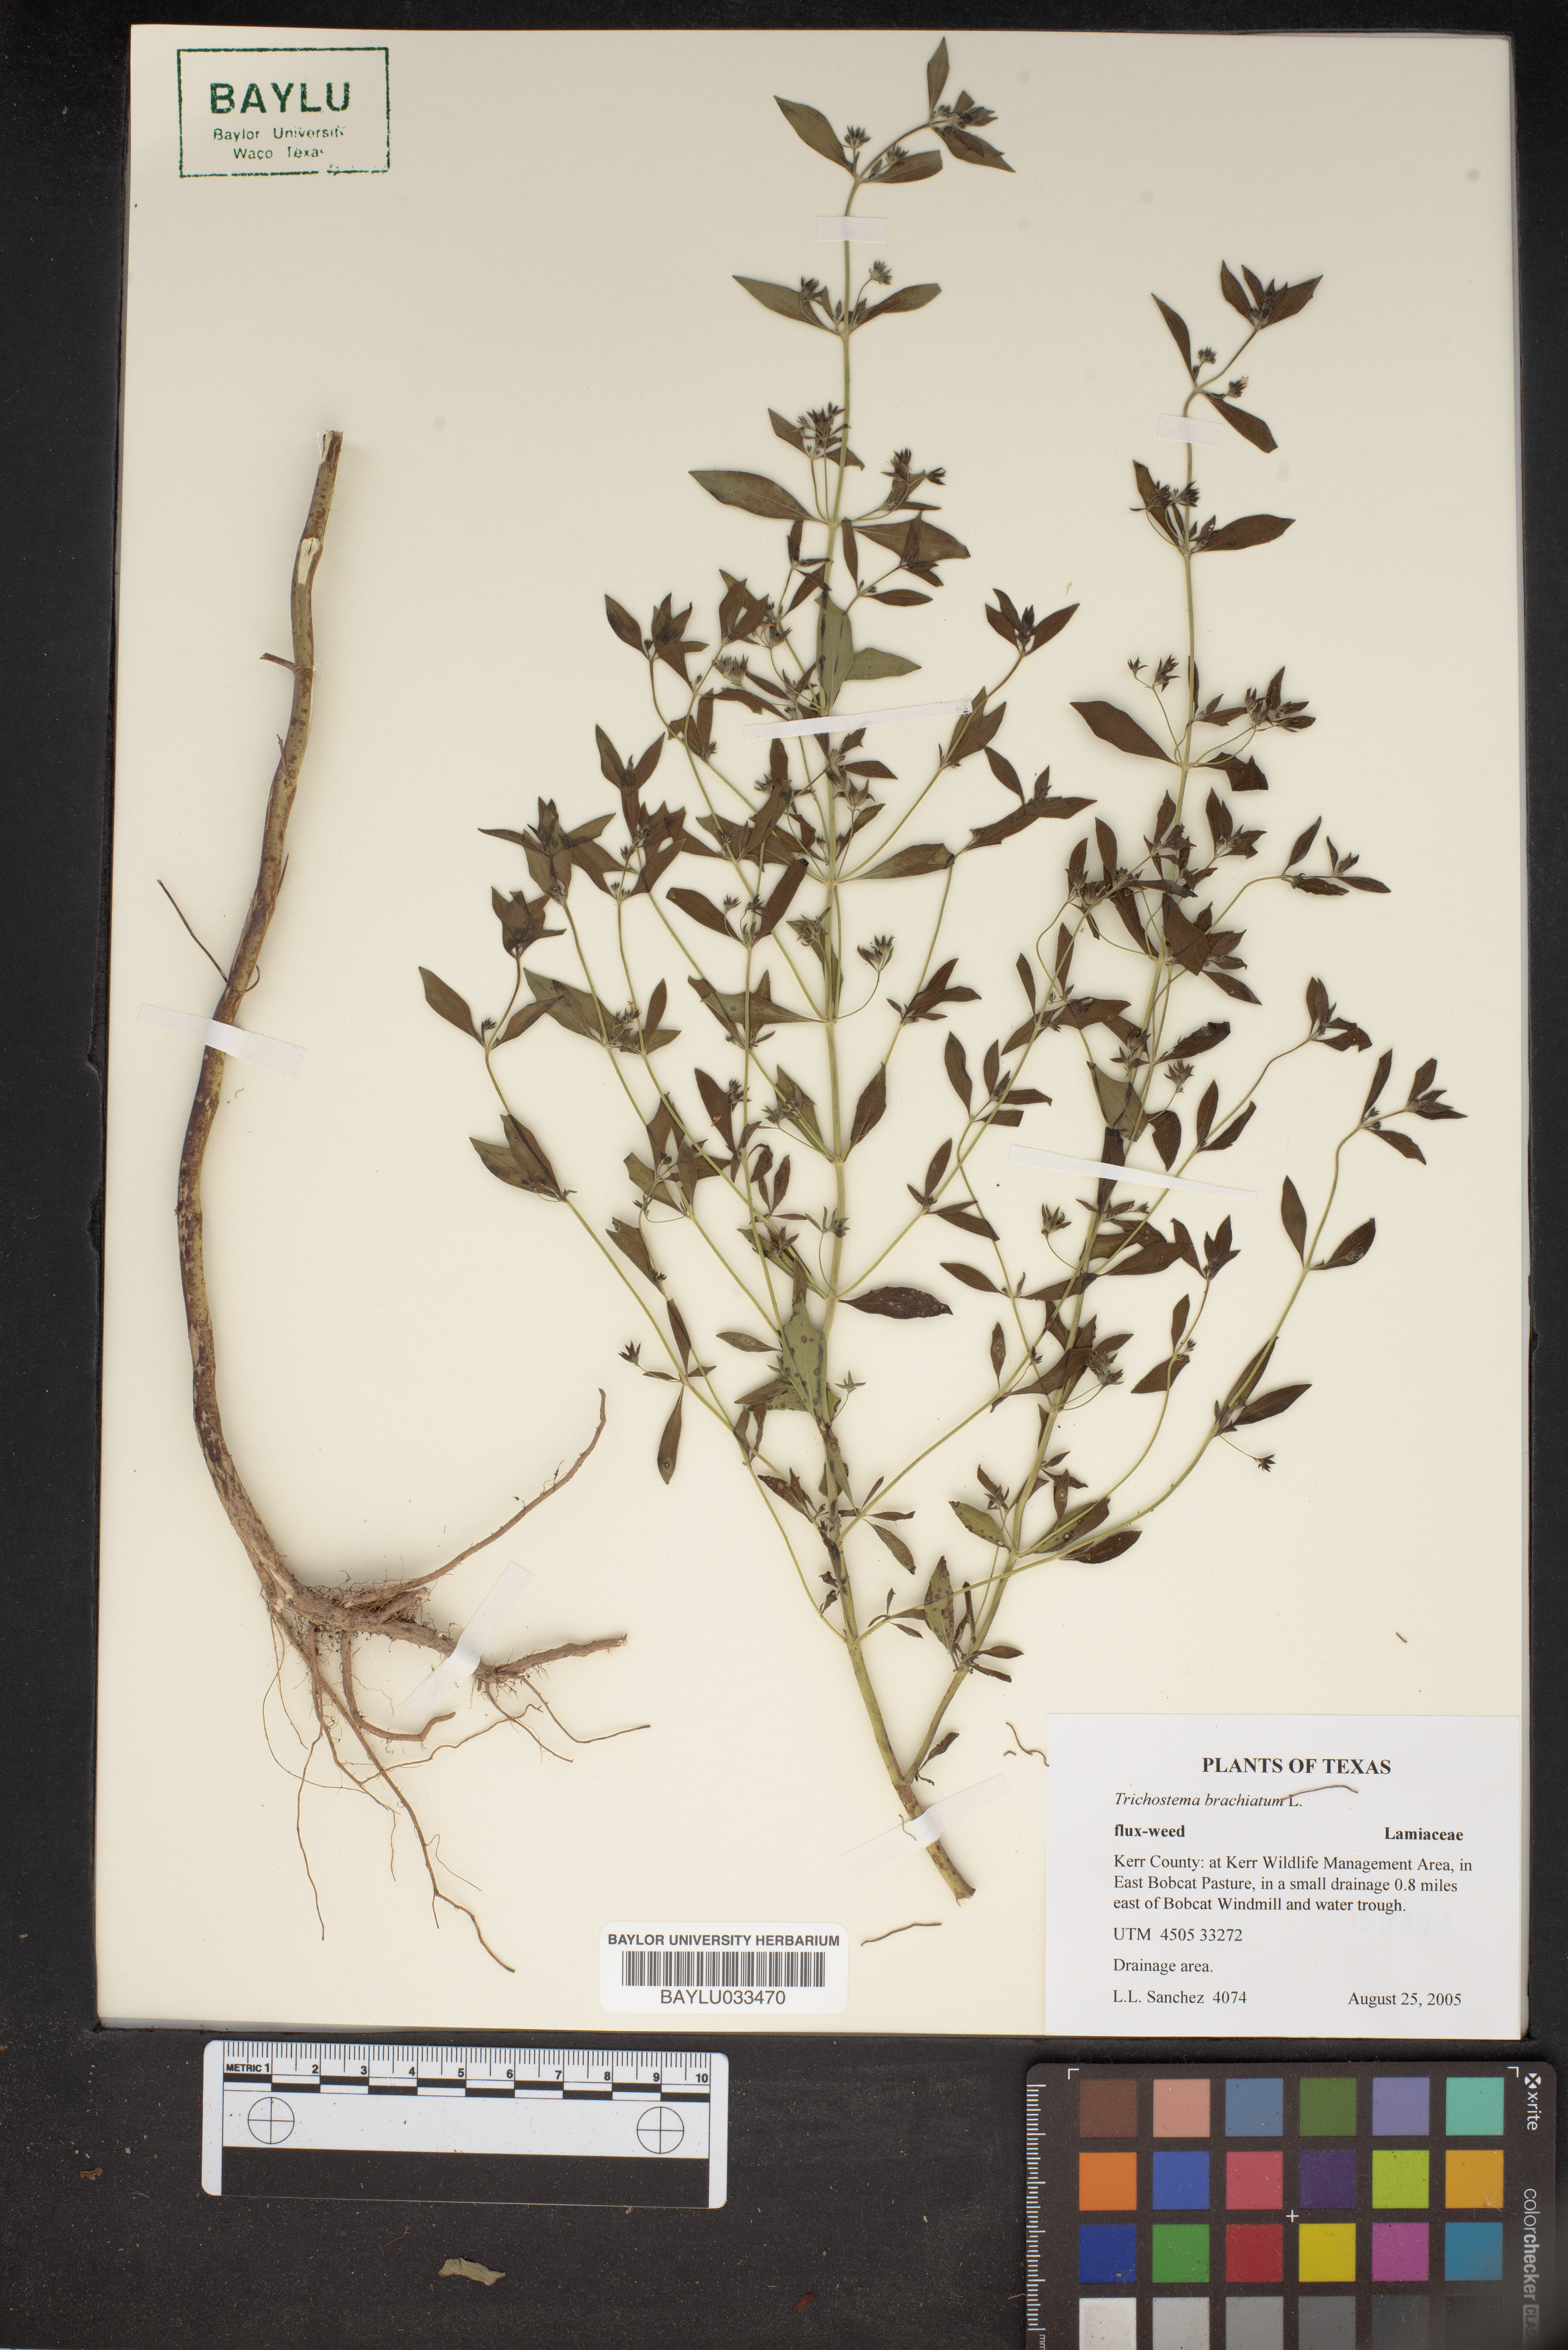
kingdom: Plantae
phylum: Tracheophyta
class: Magnoliopsida
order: Lamiales
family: Lamiaceae
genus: Trichostema
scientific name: Trichostema brachiatum
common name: False pennyroyal
